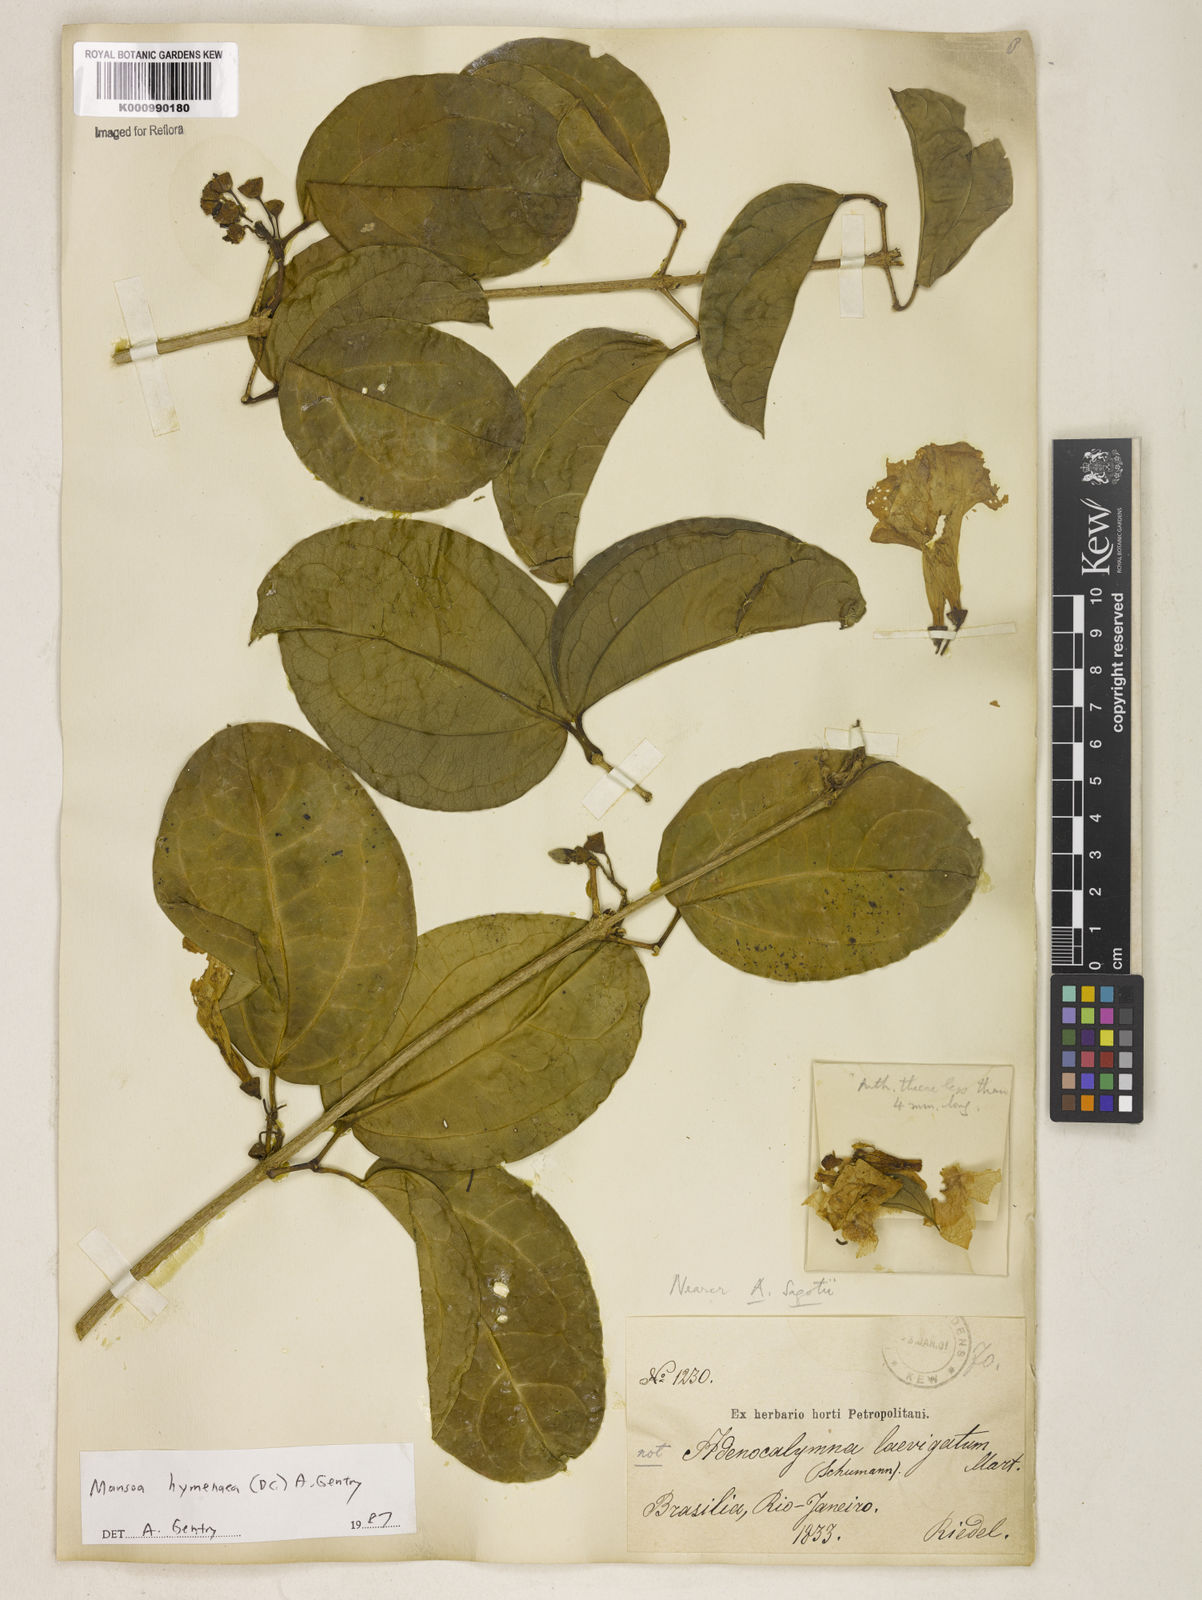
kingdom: Plantae
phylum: Tracheophyta
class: Magnoliopsida
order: Lamiales
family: Bignoniaceae
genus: Mansoa
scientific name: Mansoa hymenaea
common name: Membranous garlic vine
